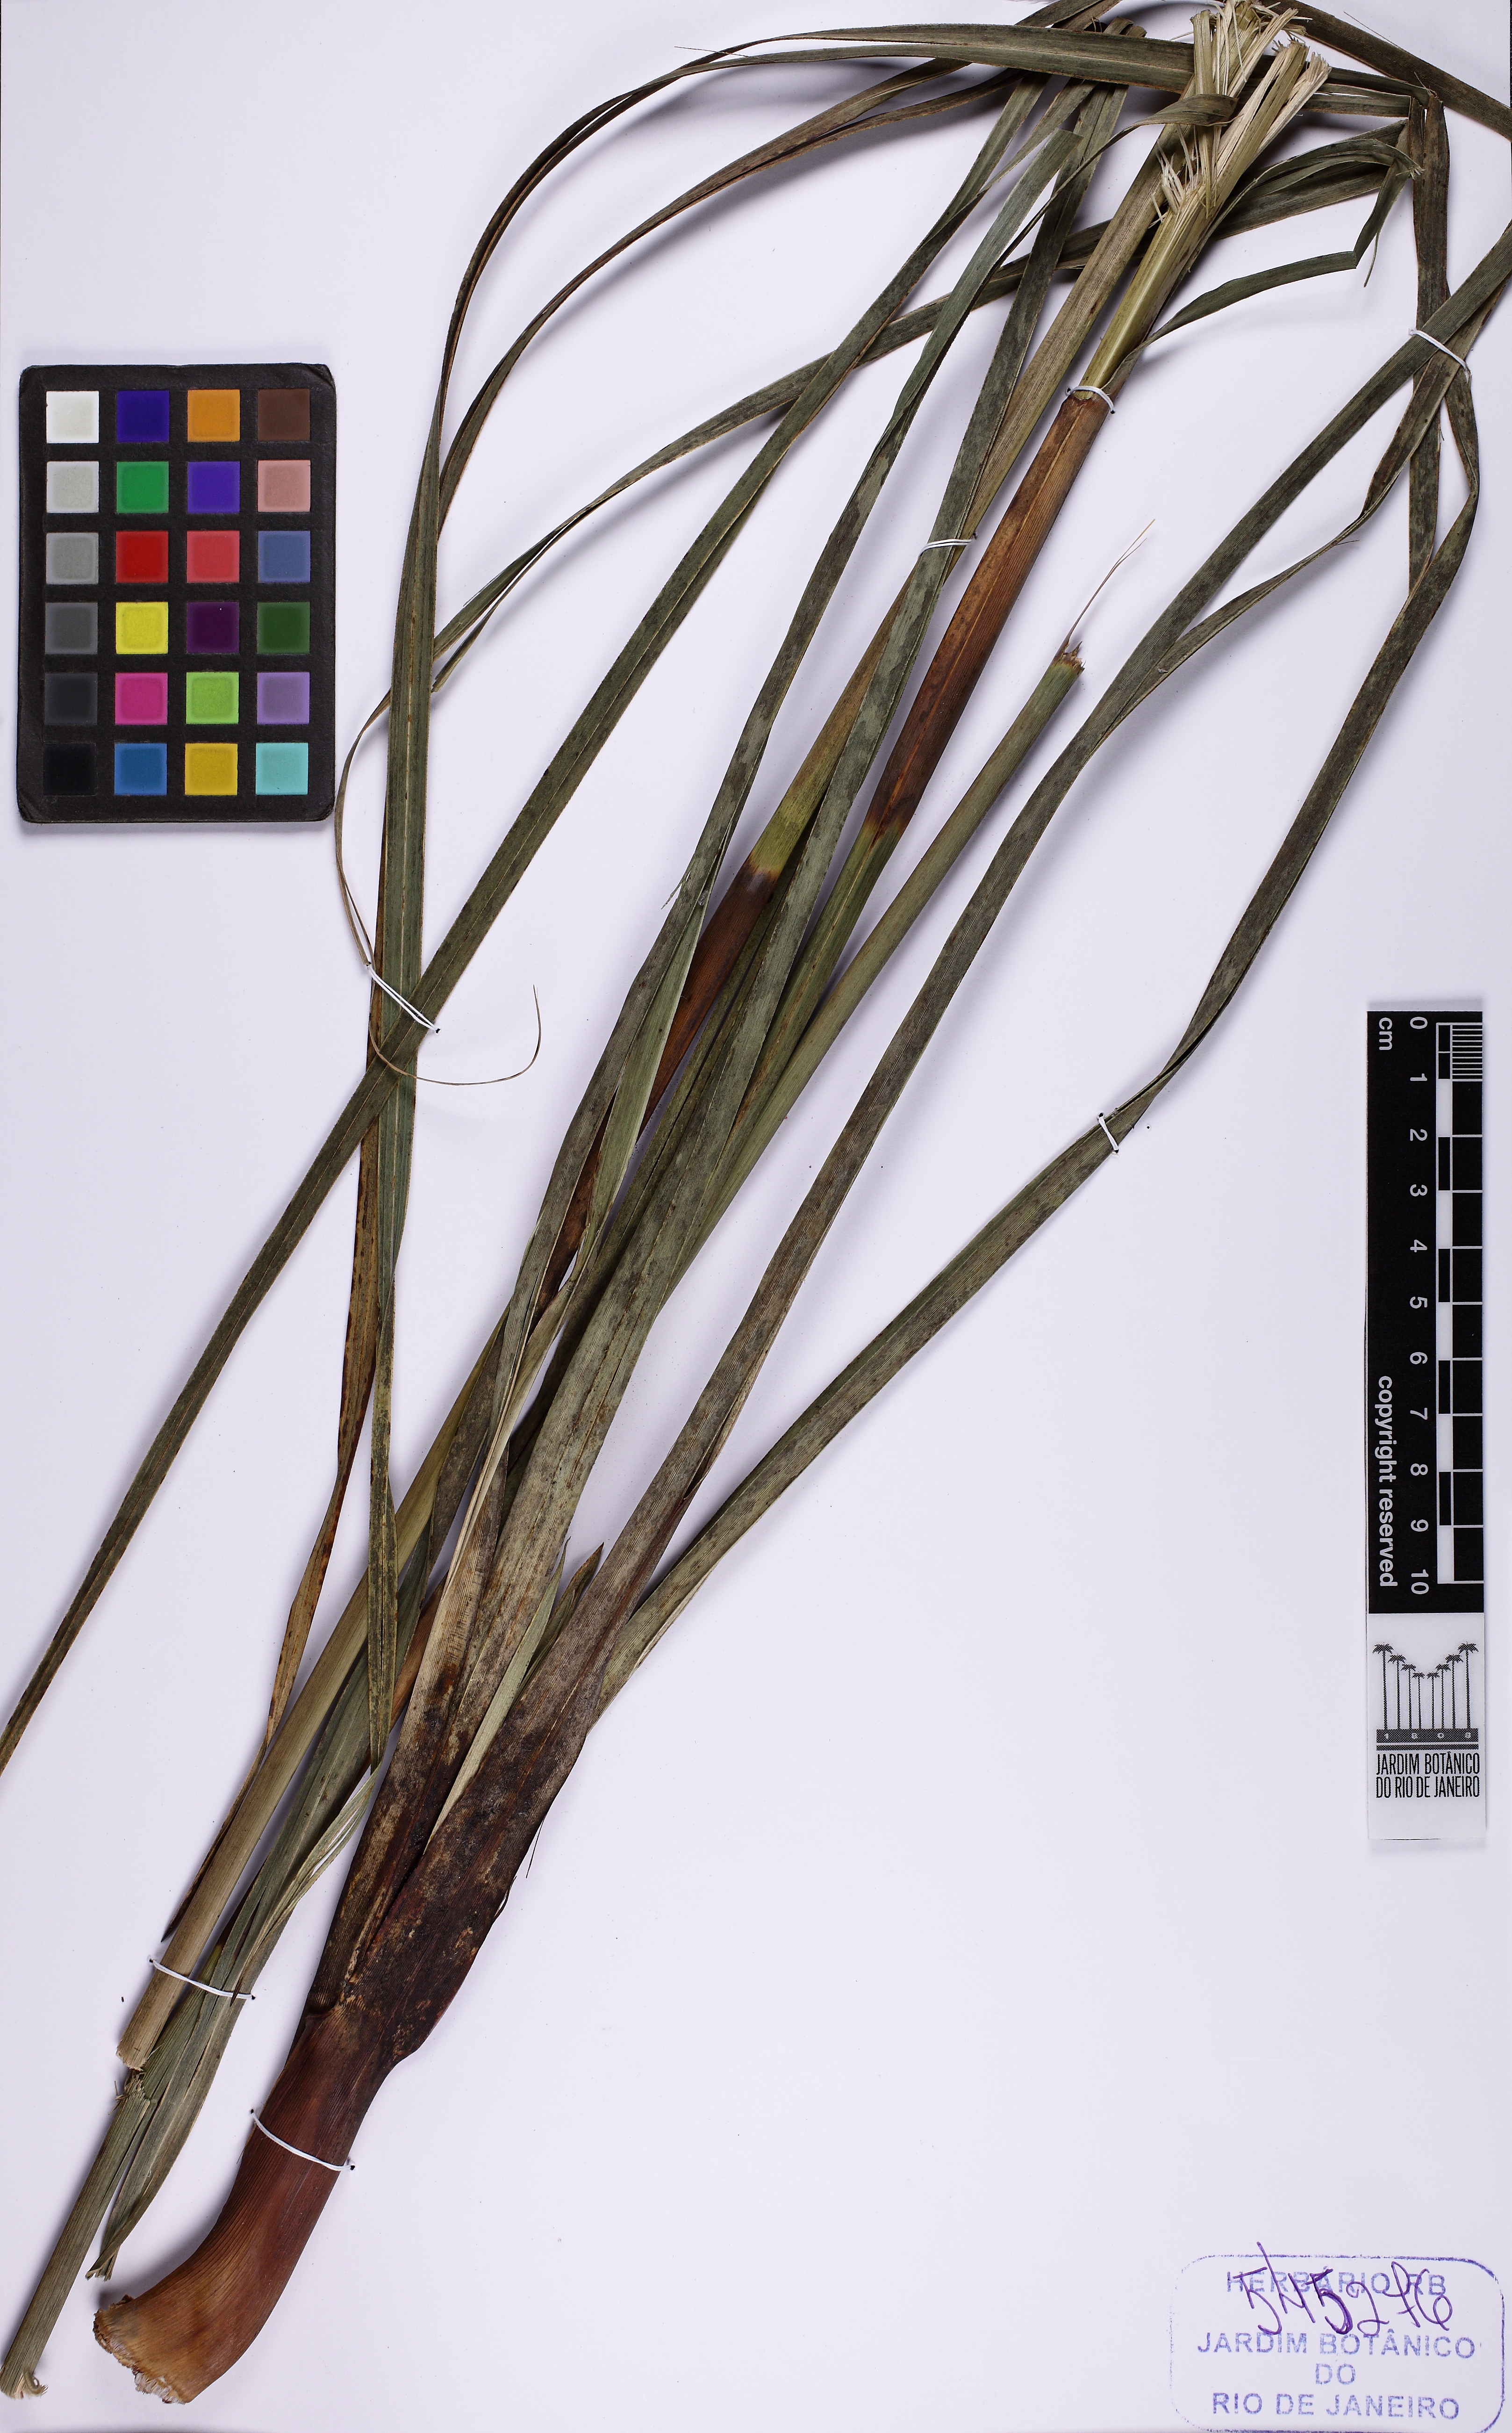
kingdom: Plantae
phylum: Tracheophyta
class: Liliopsida
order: Poales
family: Cyperaceae
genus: Lagenocarpus
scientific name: Lagenocarpus rigidus
